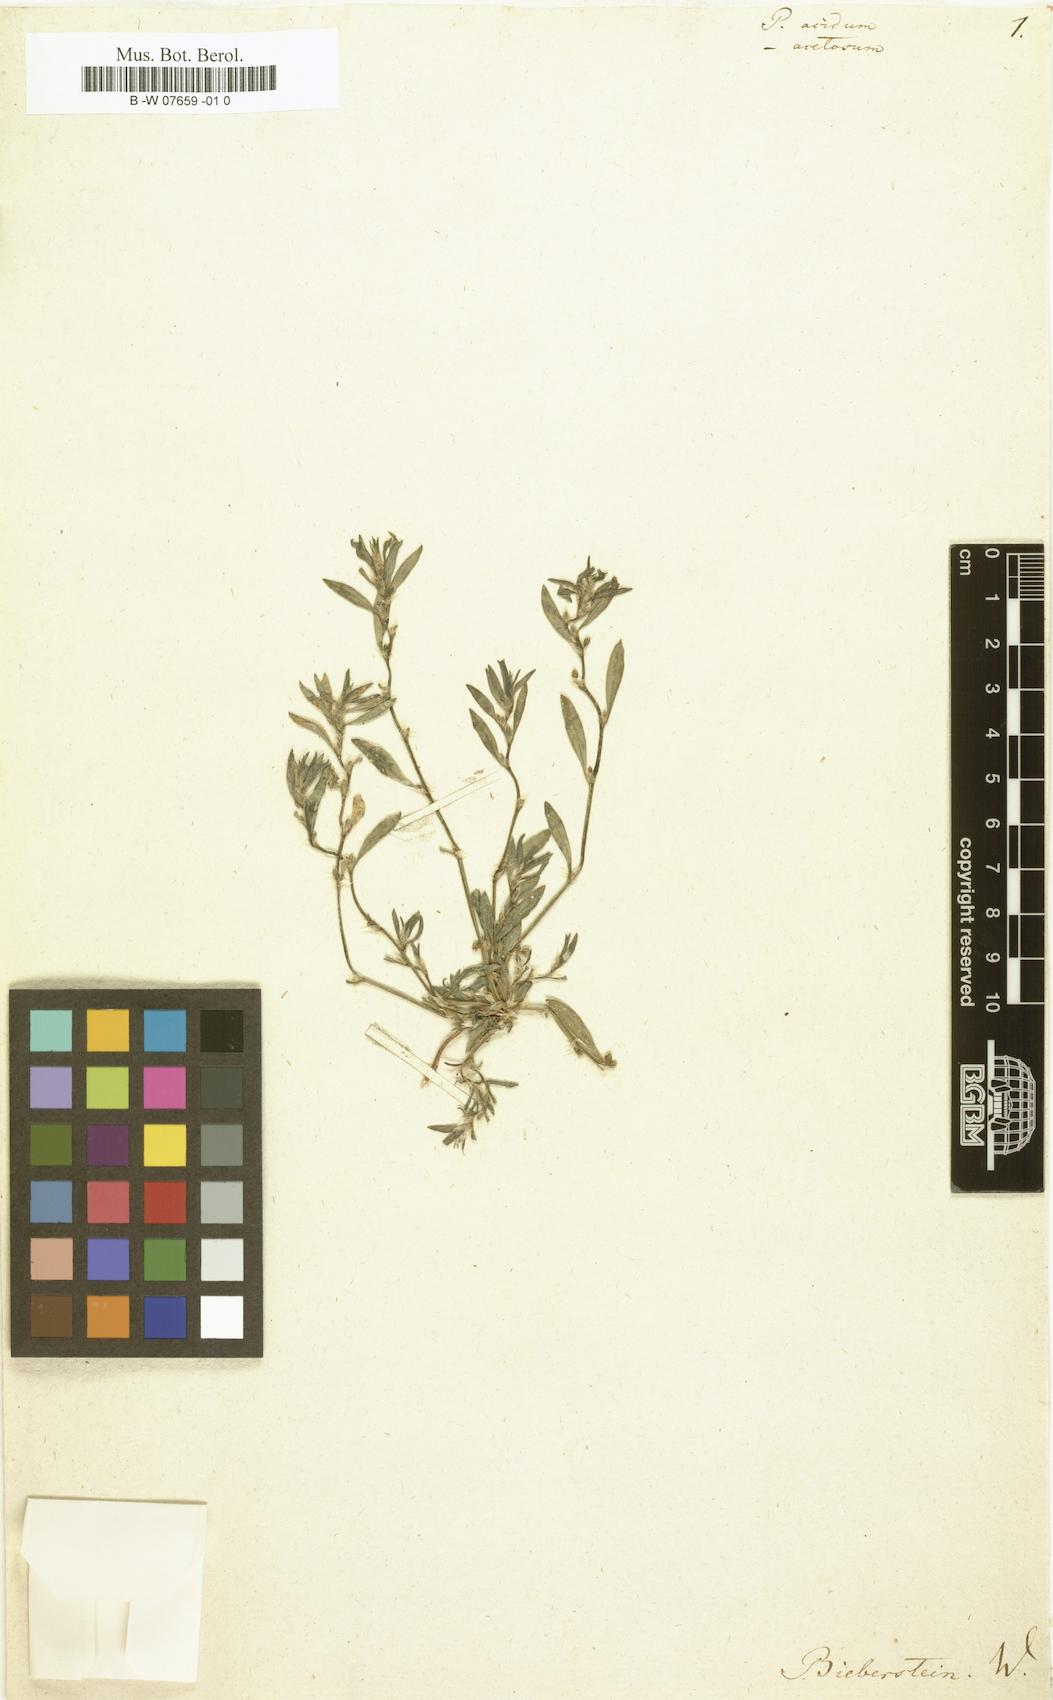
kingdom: Plantae
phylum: Tracheophyta
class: Magnoliopsida
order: Caryophyllales
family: Polygonaceae
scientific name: Polygonaceae
